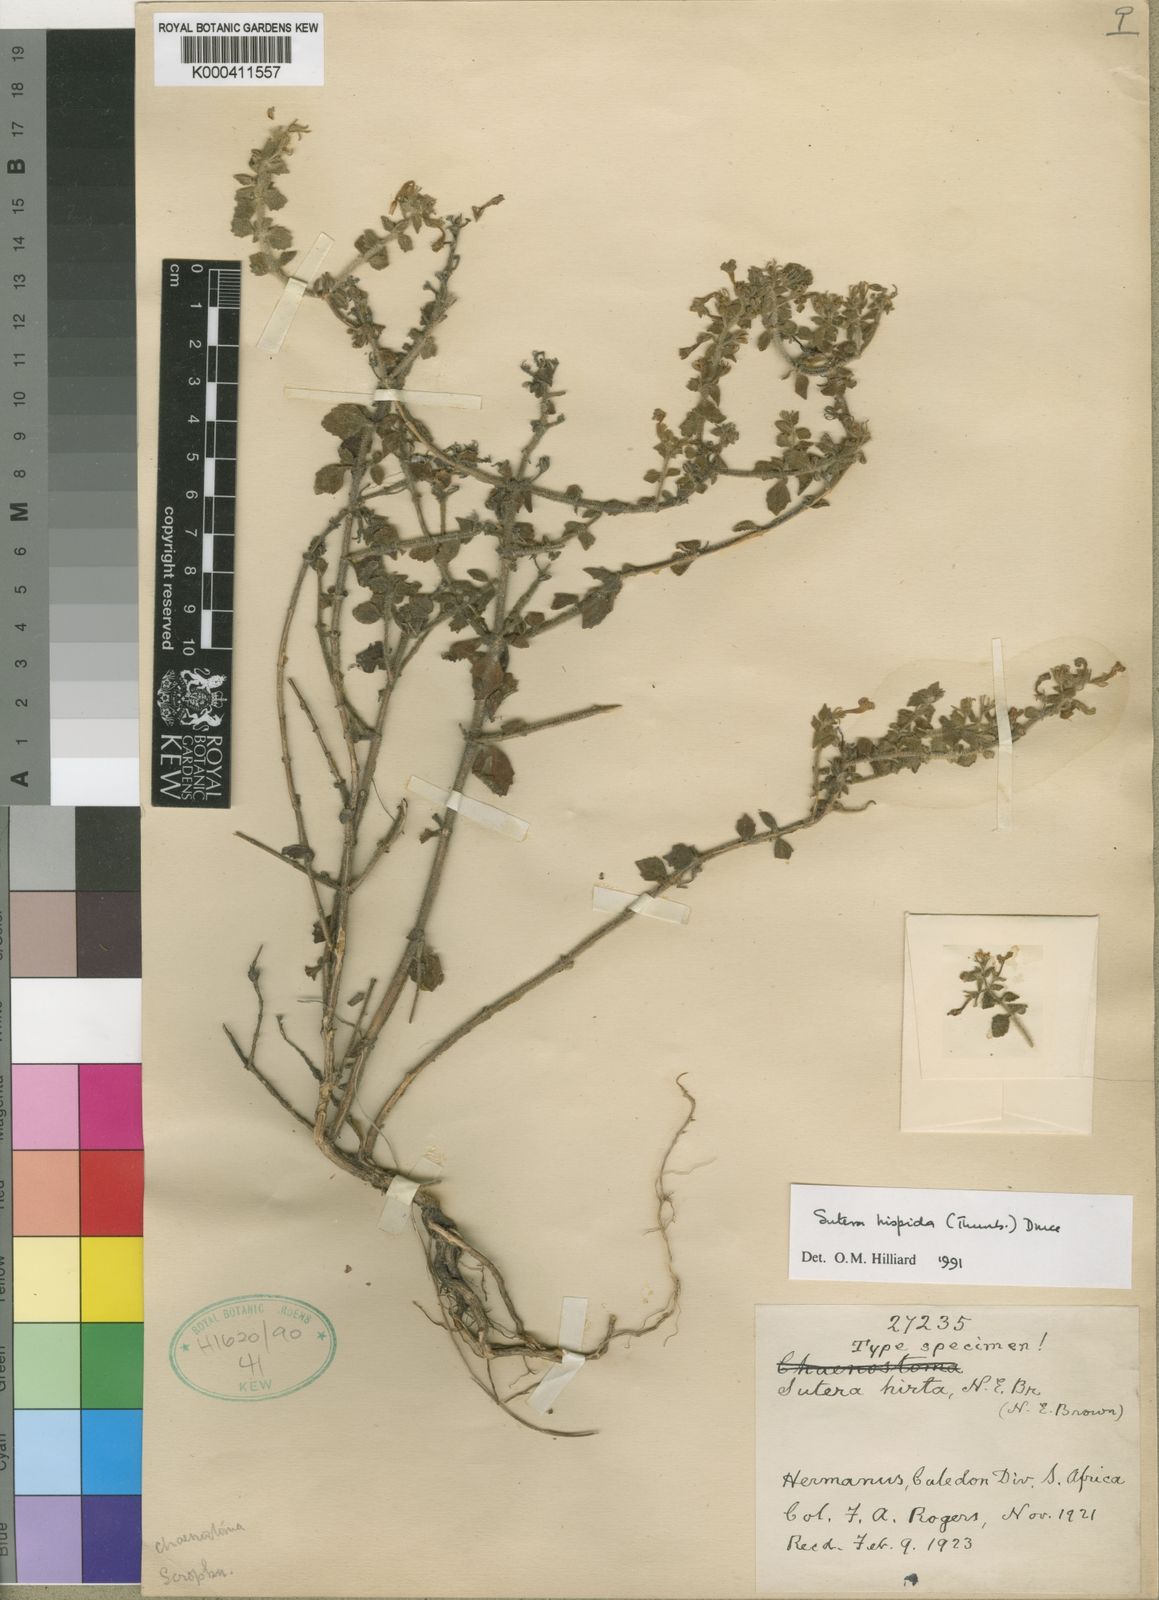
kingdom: Plantae
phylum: Tracheophyta
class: Magnoliopsida
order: Lamiales
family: Scrophulariaceae
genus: Chaenostoma
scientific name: Chaenostoma hispidum
